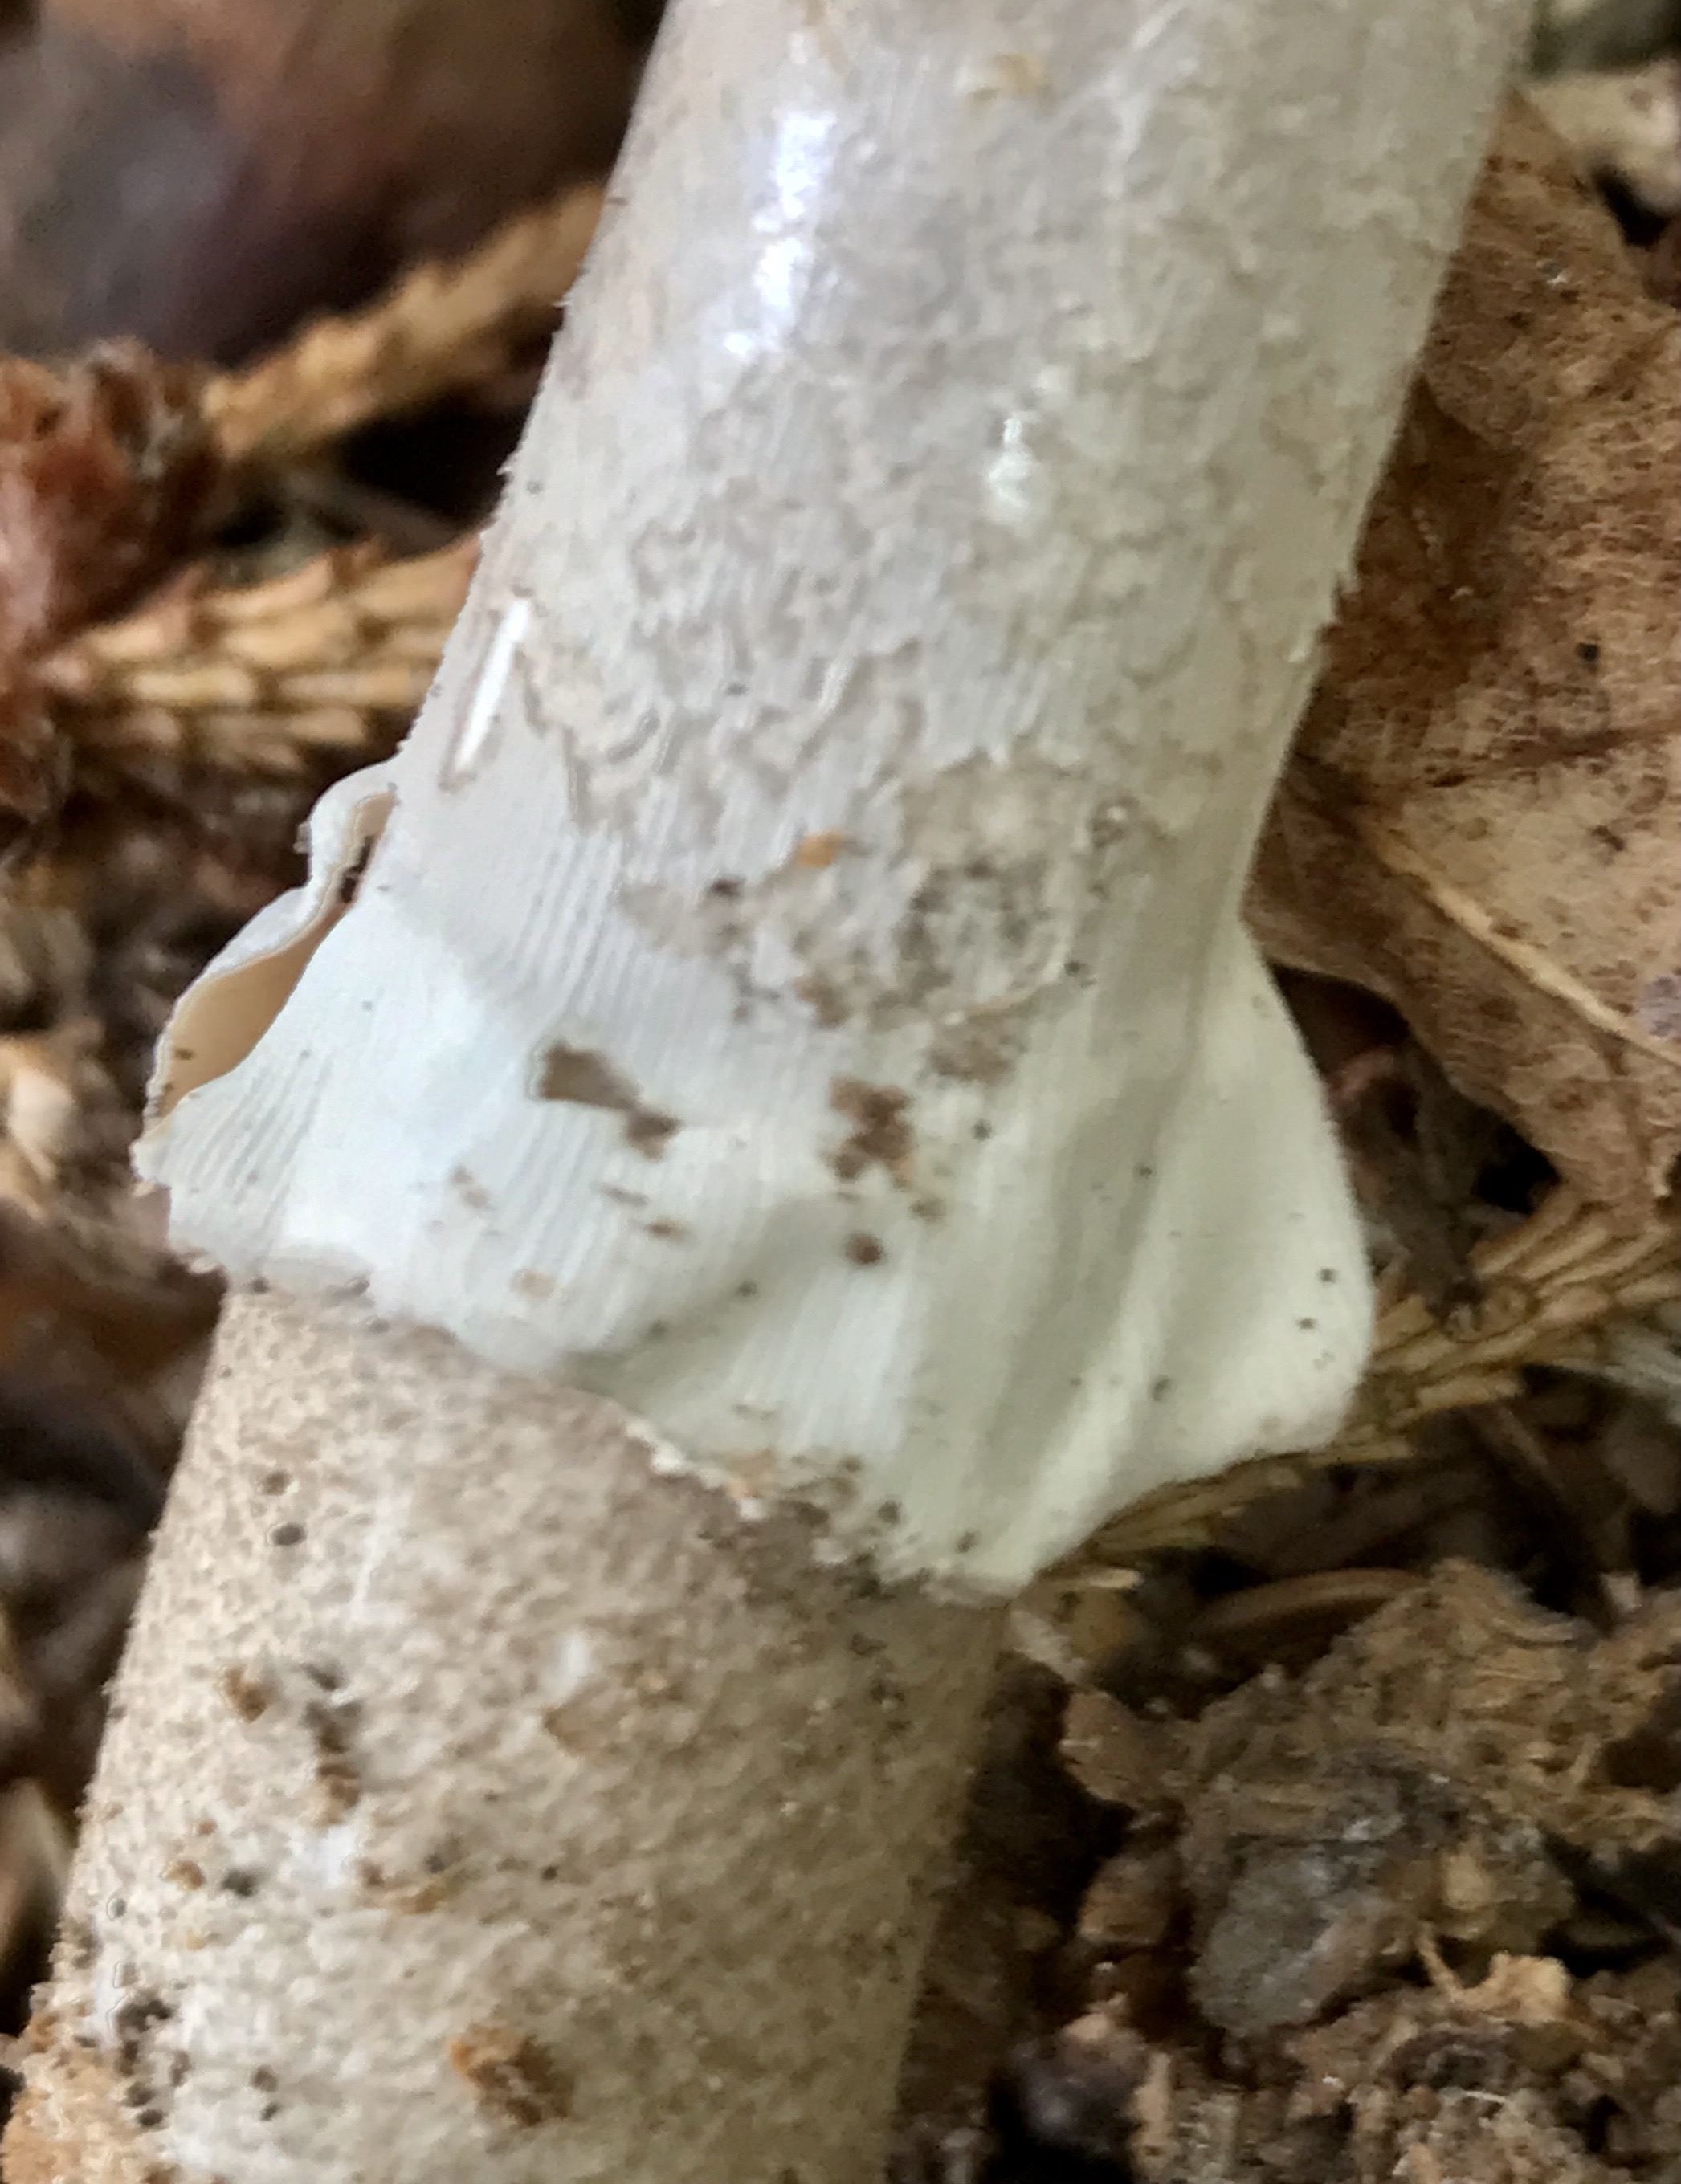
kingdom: Fungi
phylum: Basidiomycota
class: Agaricomycetes
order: Agaricales
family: Amanitaceae
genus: Amanita
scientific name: Amanita
